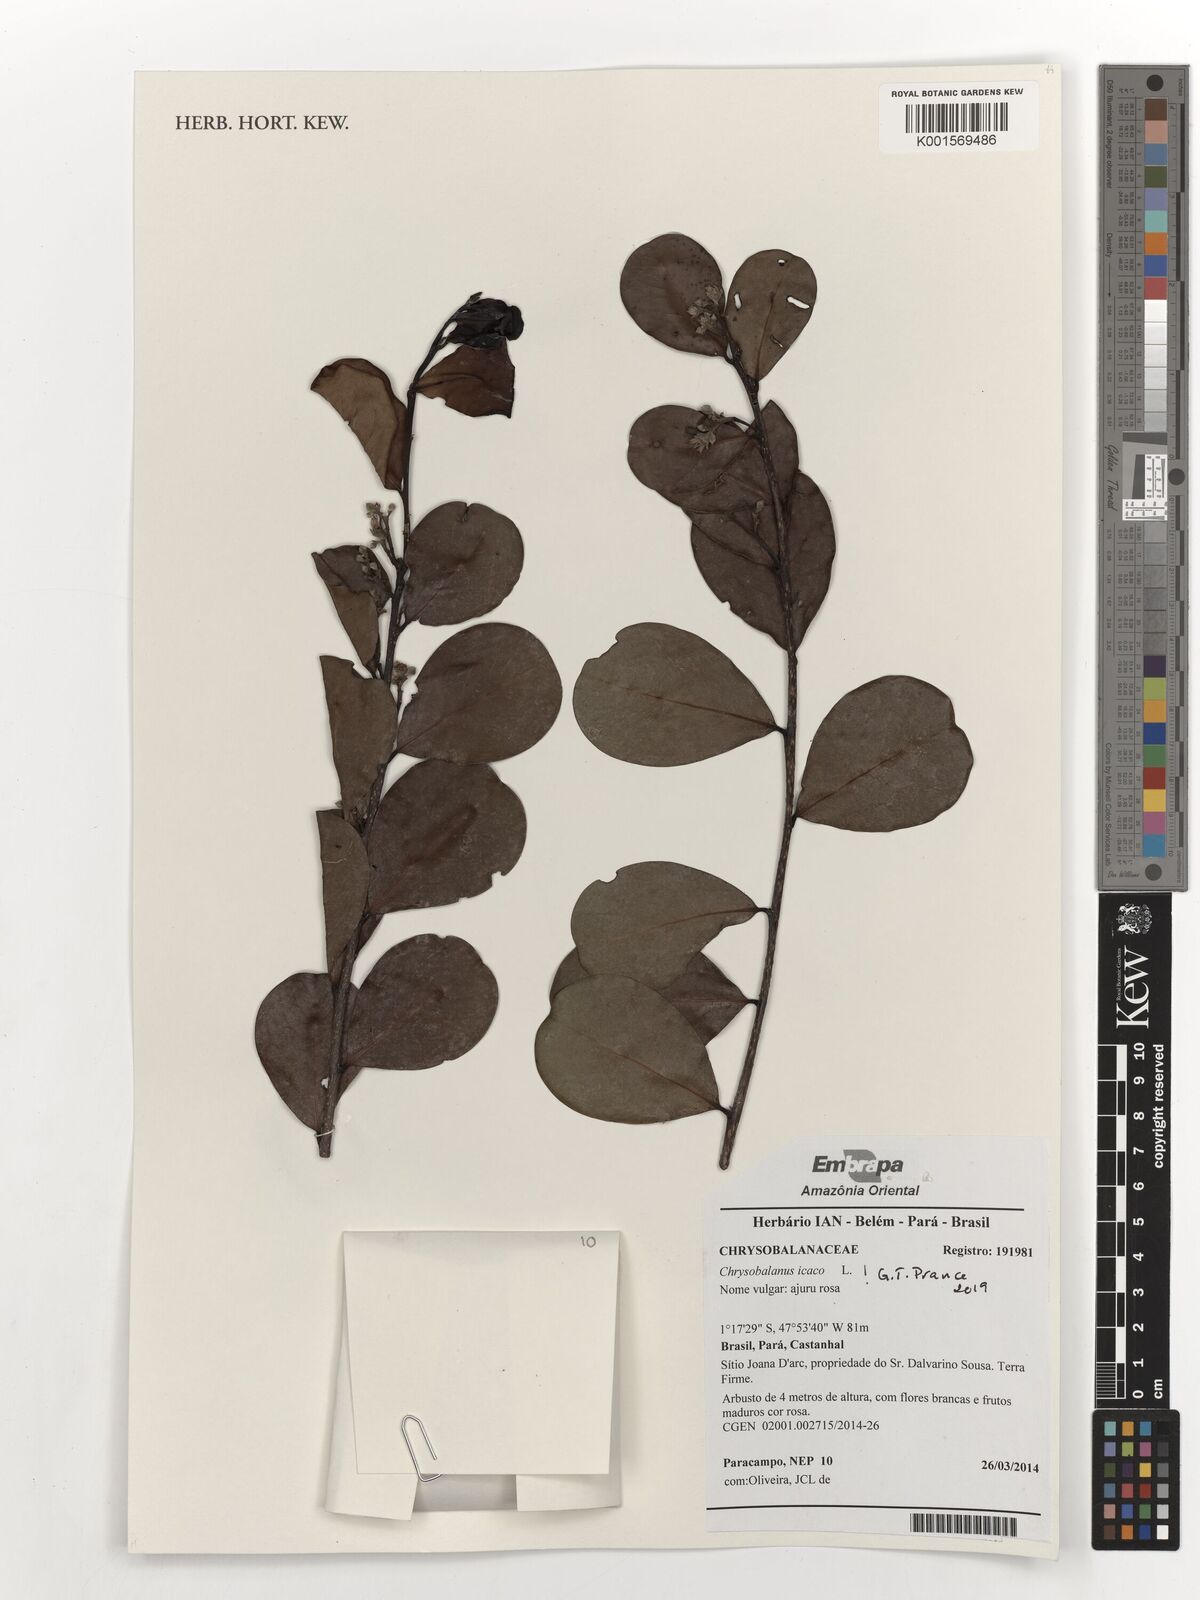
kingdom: Plantae
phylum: Tracheophyta
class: Magnoliopsida
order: Malpighiales
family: Chrysobalanaceae
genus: Chrysobalanus
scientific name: Chrysobalanus icaco
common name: Coco plum
